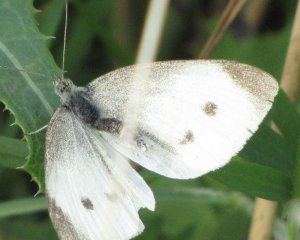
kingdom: Animalia
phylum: Arthropoda
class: Insecta
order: Lepidoptera
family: Pieridae
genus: Pieris
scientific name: Pieris rapae
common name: Cabbage White
